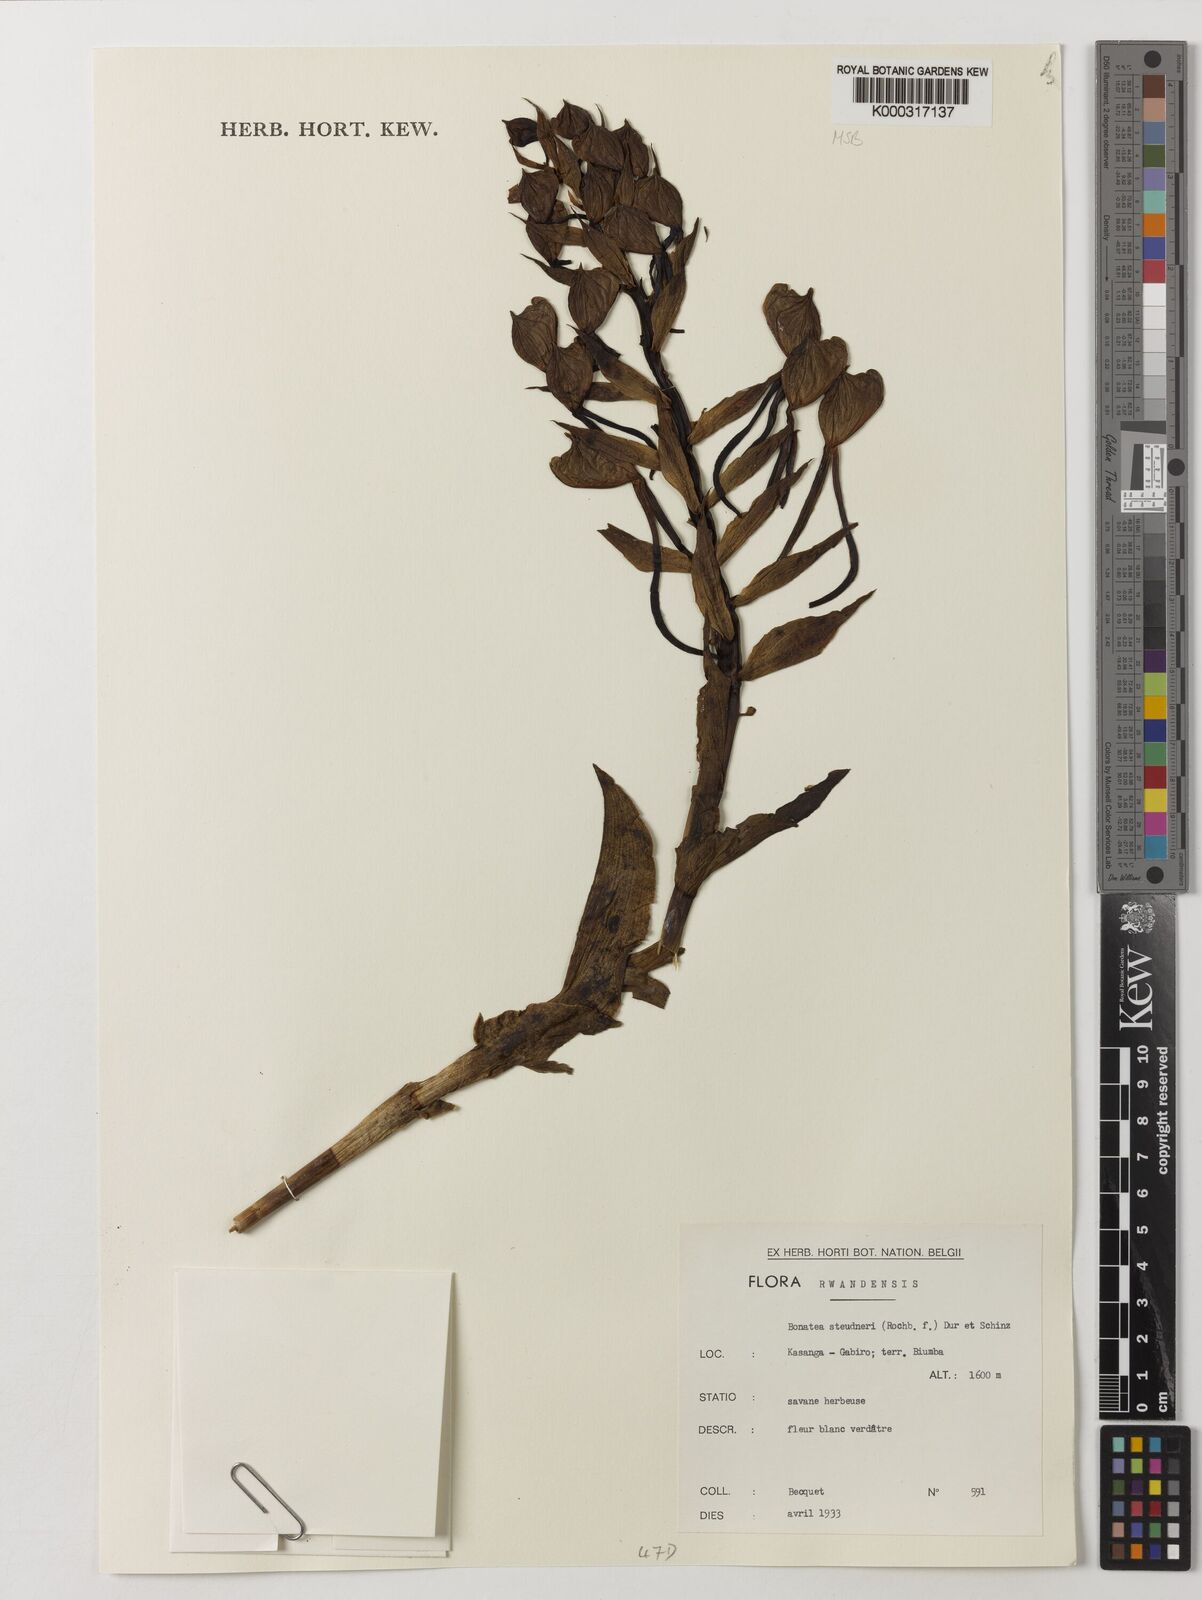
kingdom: Plantae
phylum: Tracheophyta
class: Liliopsida
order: Asparagales
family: Orchidaceae
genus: Bonatea
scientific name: Bonatea steudneri
